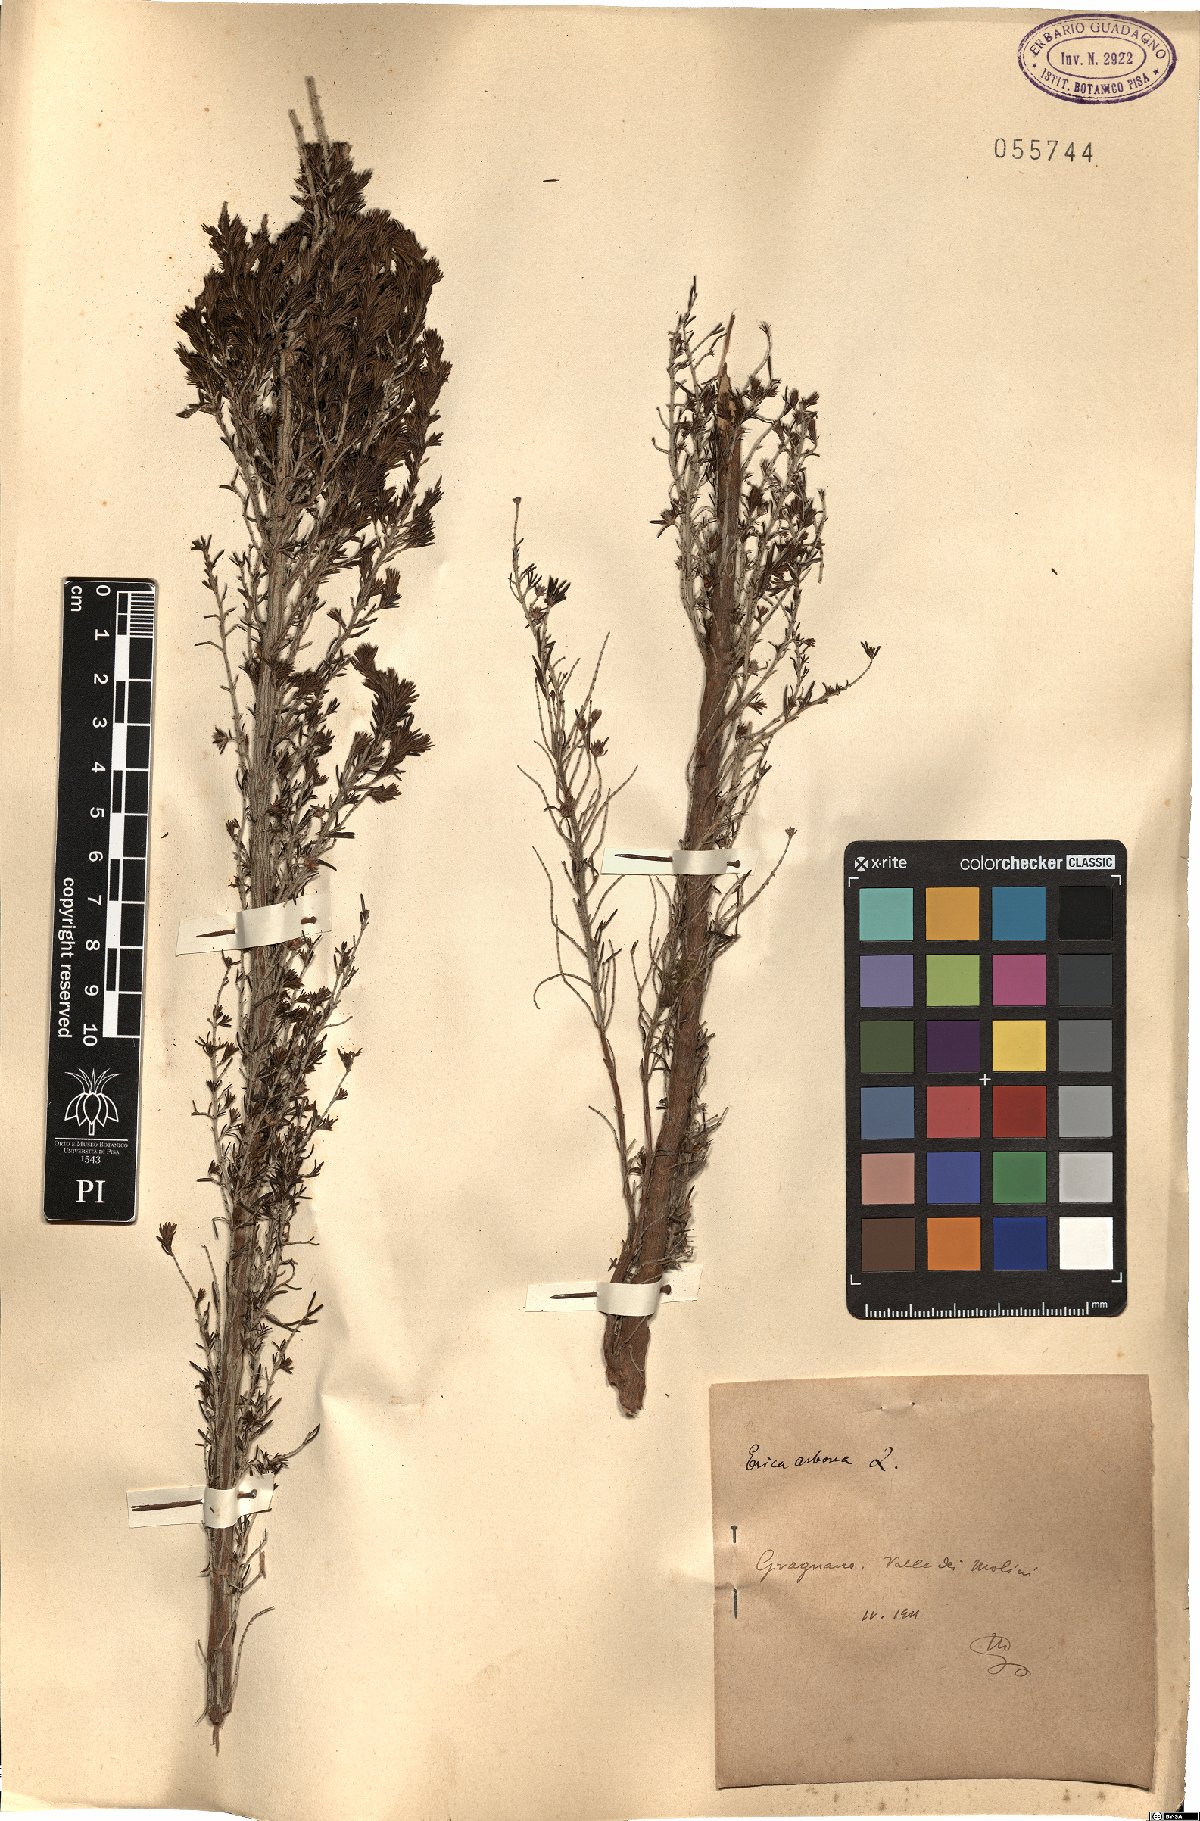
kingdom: Plantae
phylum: Tracheophyta
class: Magnoliopsida
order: Ericales
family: Ericaceae
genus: Erica
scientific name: Erica arborea
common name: Tree heath
